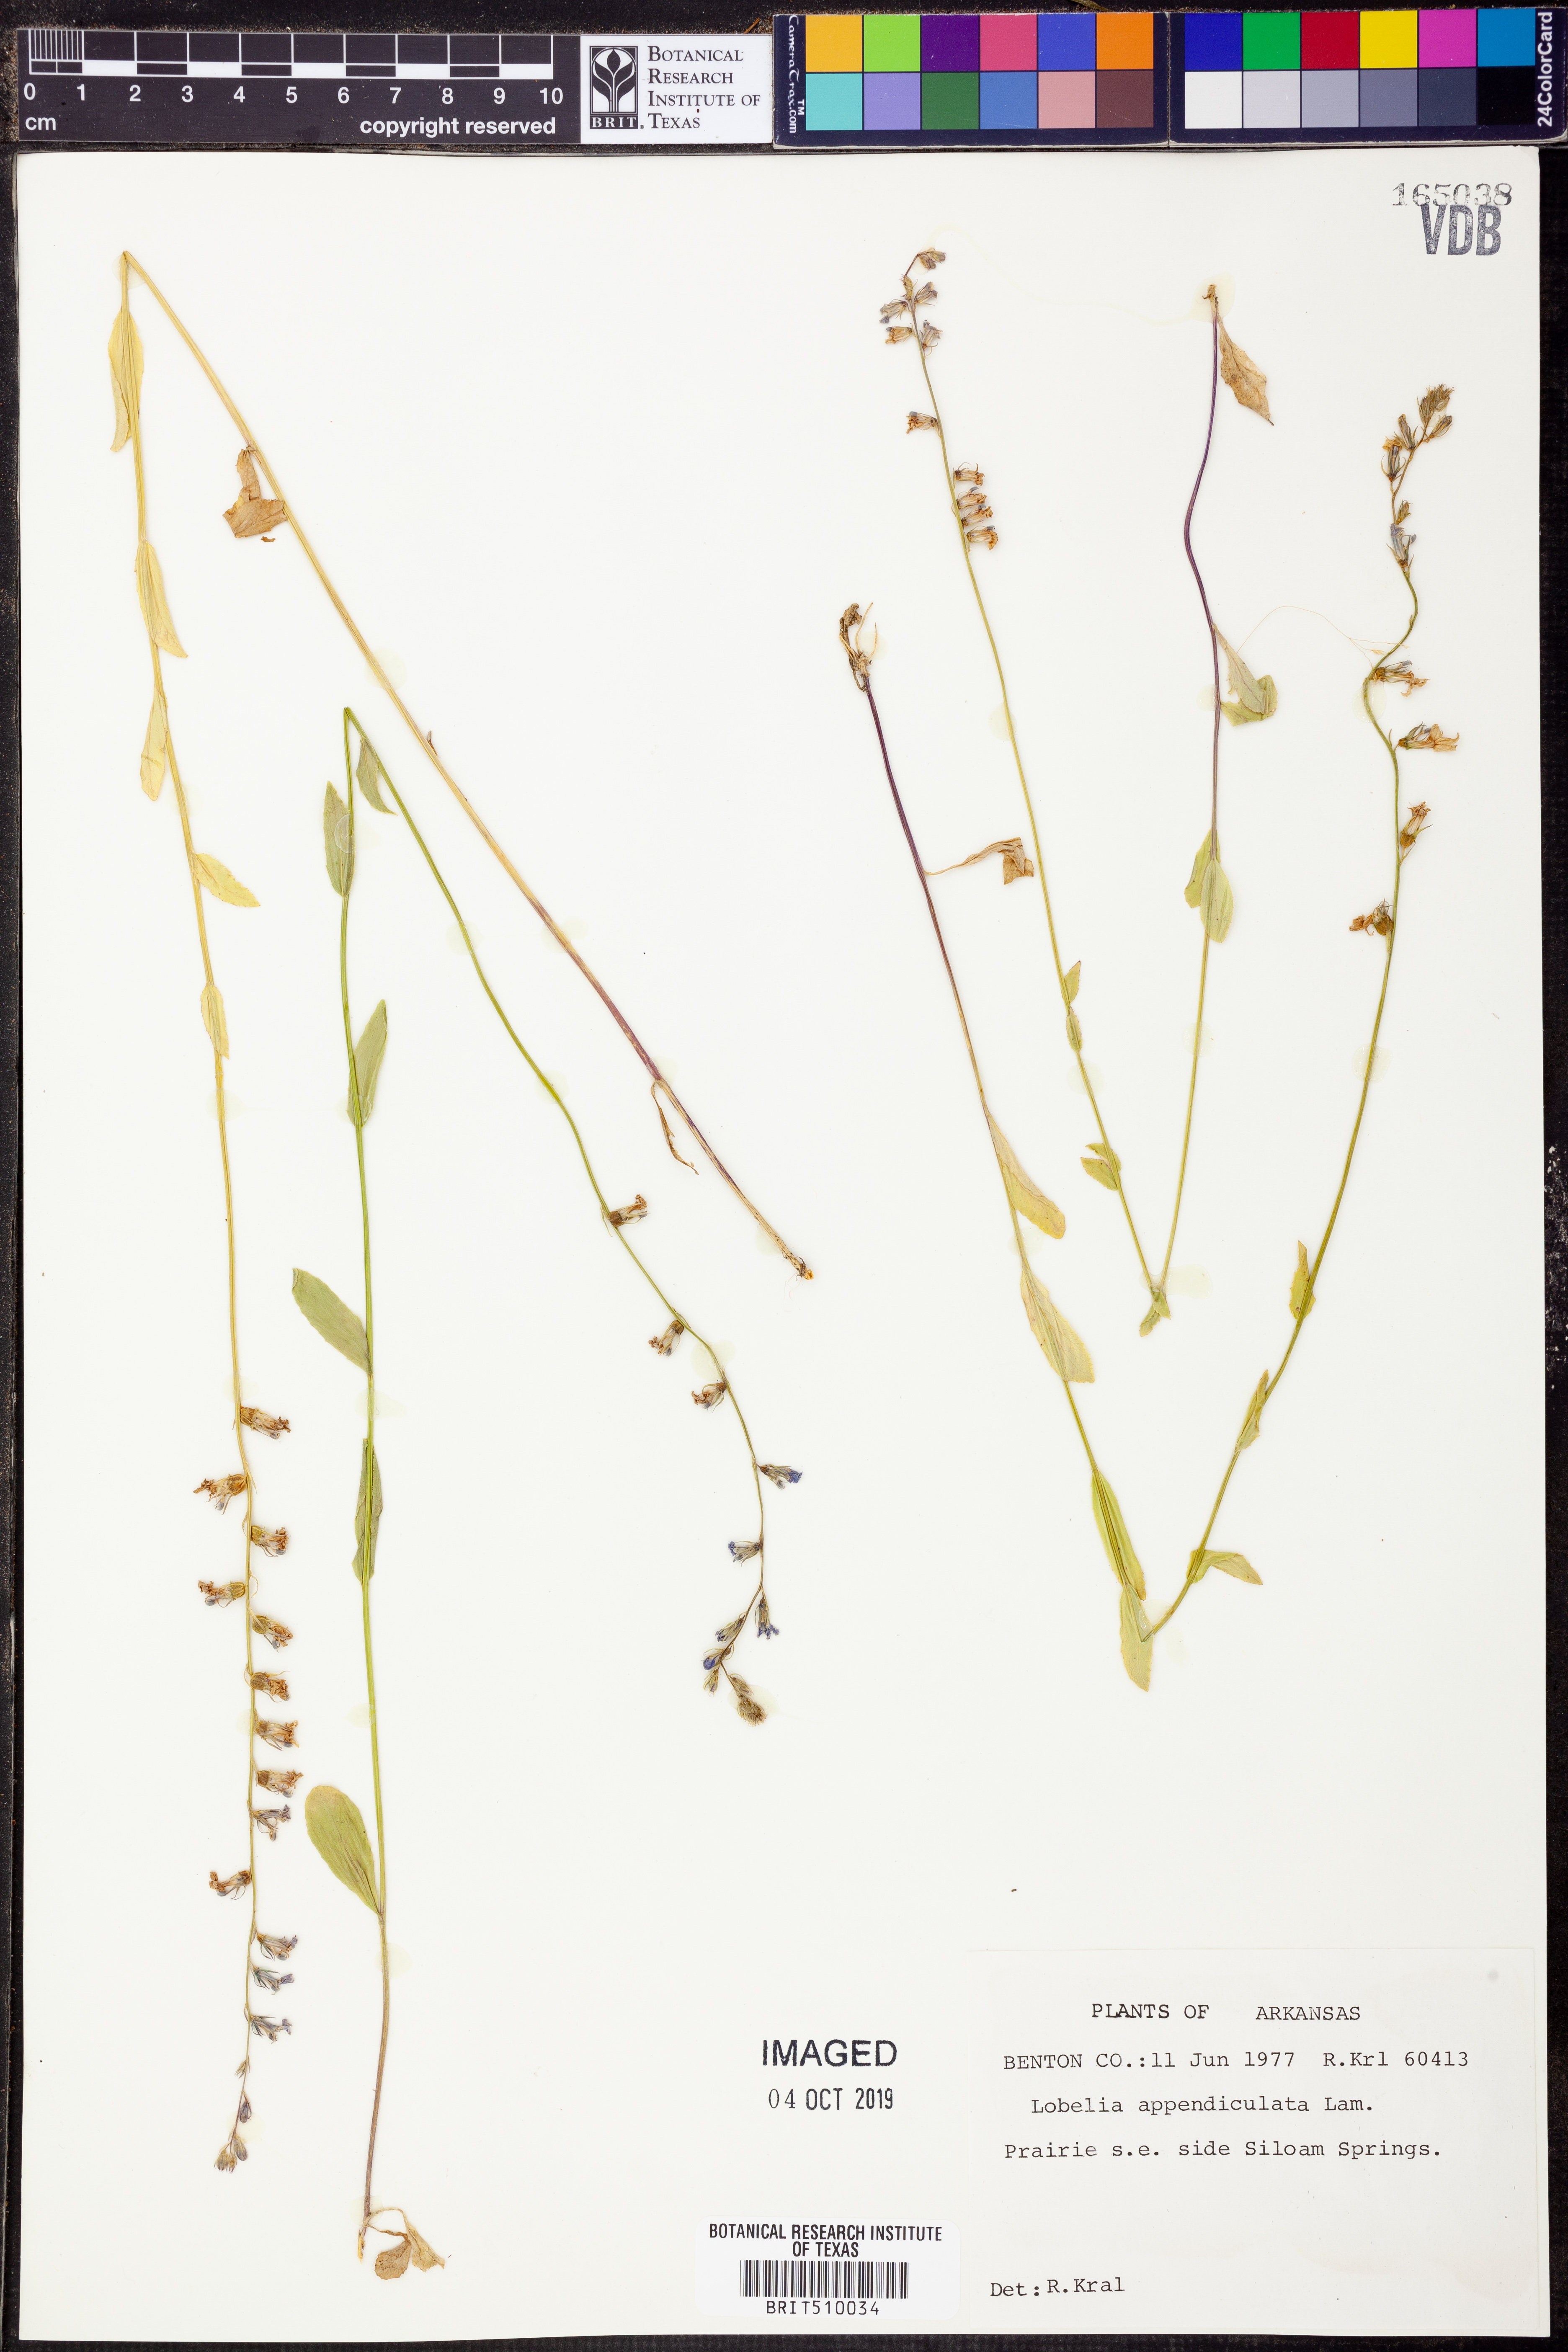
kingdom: Plantae
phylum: Tracheophyta
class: Magnoliopsida
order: Asterales
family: Campanulaceae
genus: Lobelia
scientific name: Lobelia appendiculata
